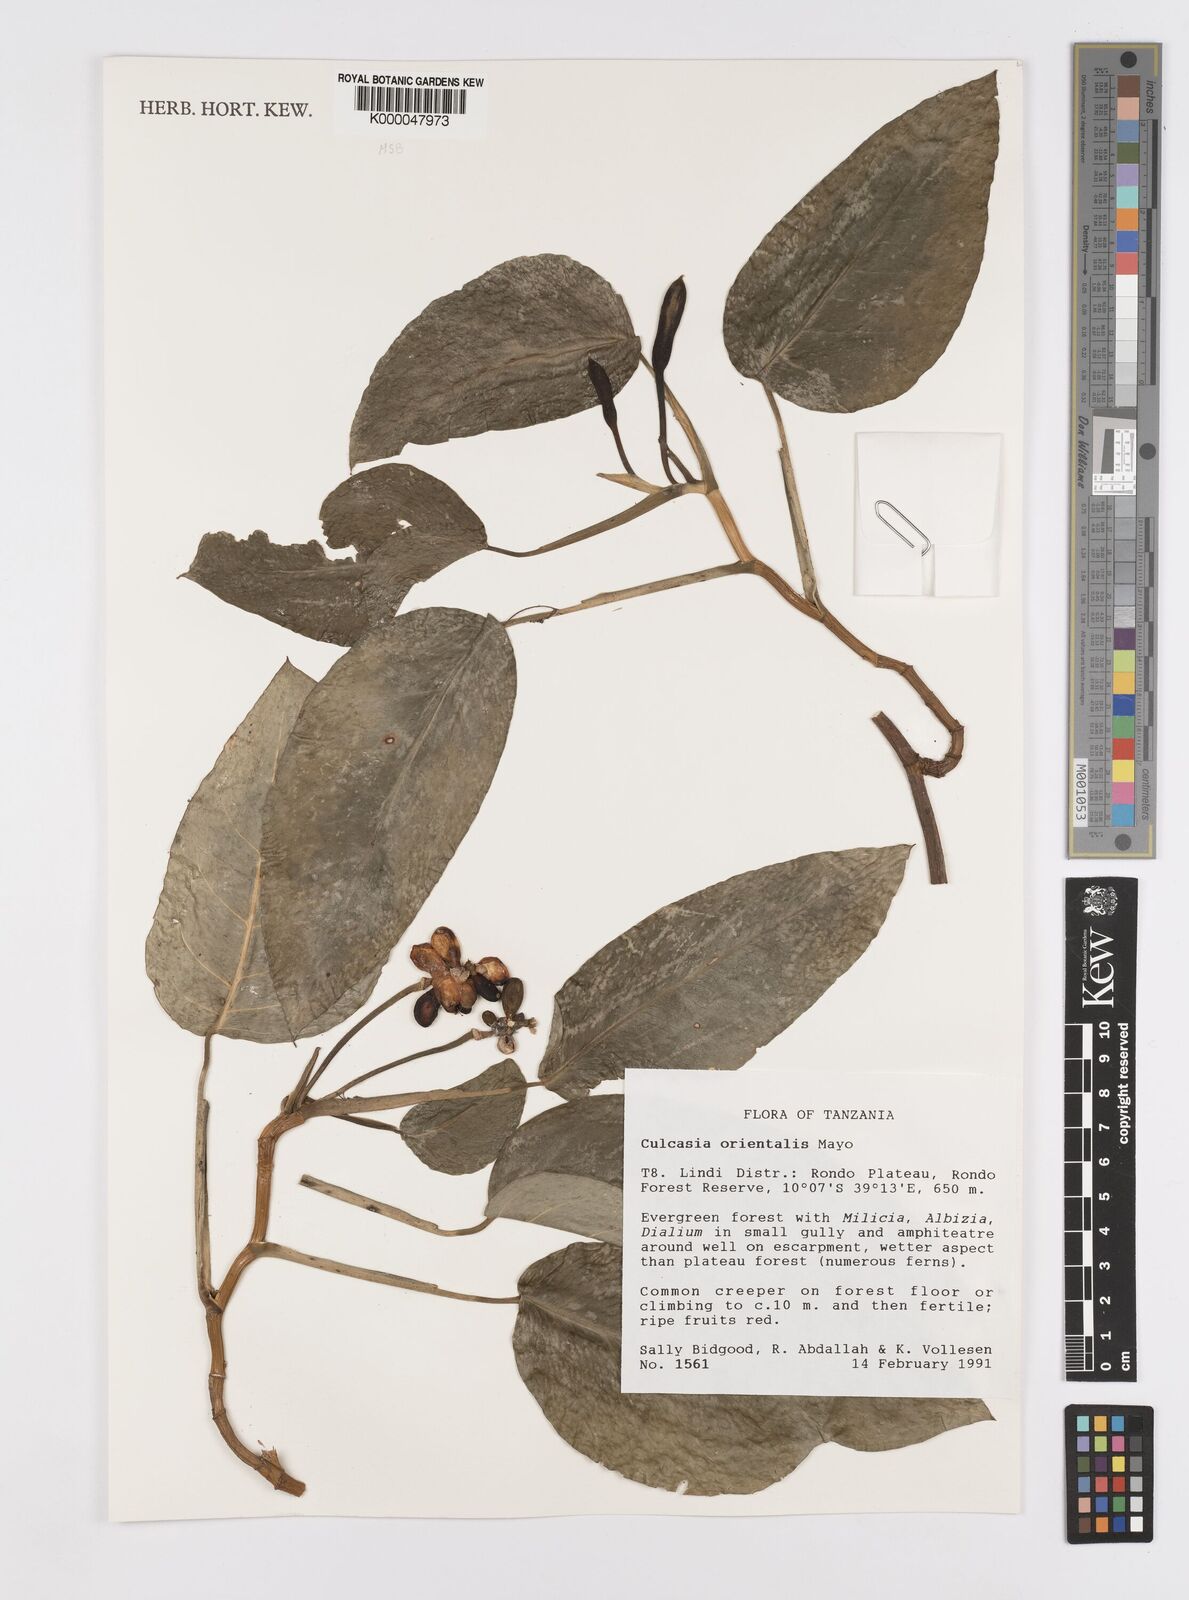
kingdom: Plantae
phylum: Tracheophyta
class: Liliopsida
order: Alismatales
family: Araceae
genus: Culcasia
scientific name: Culcasia orientalis
